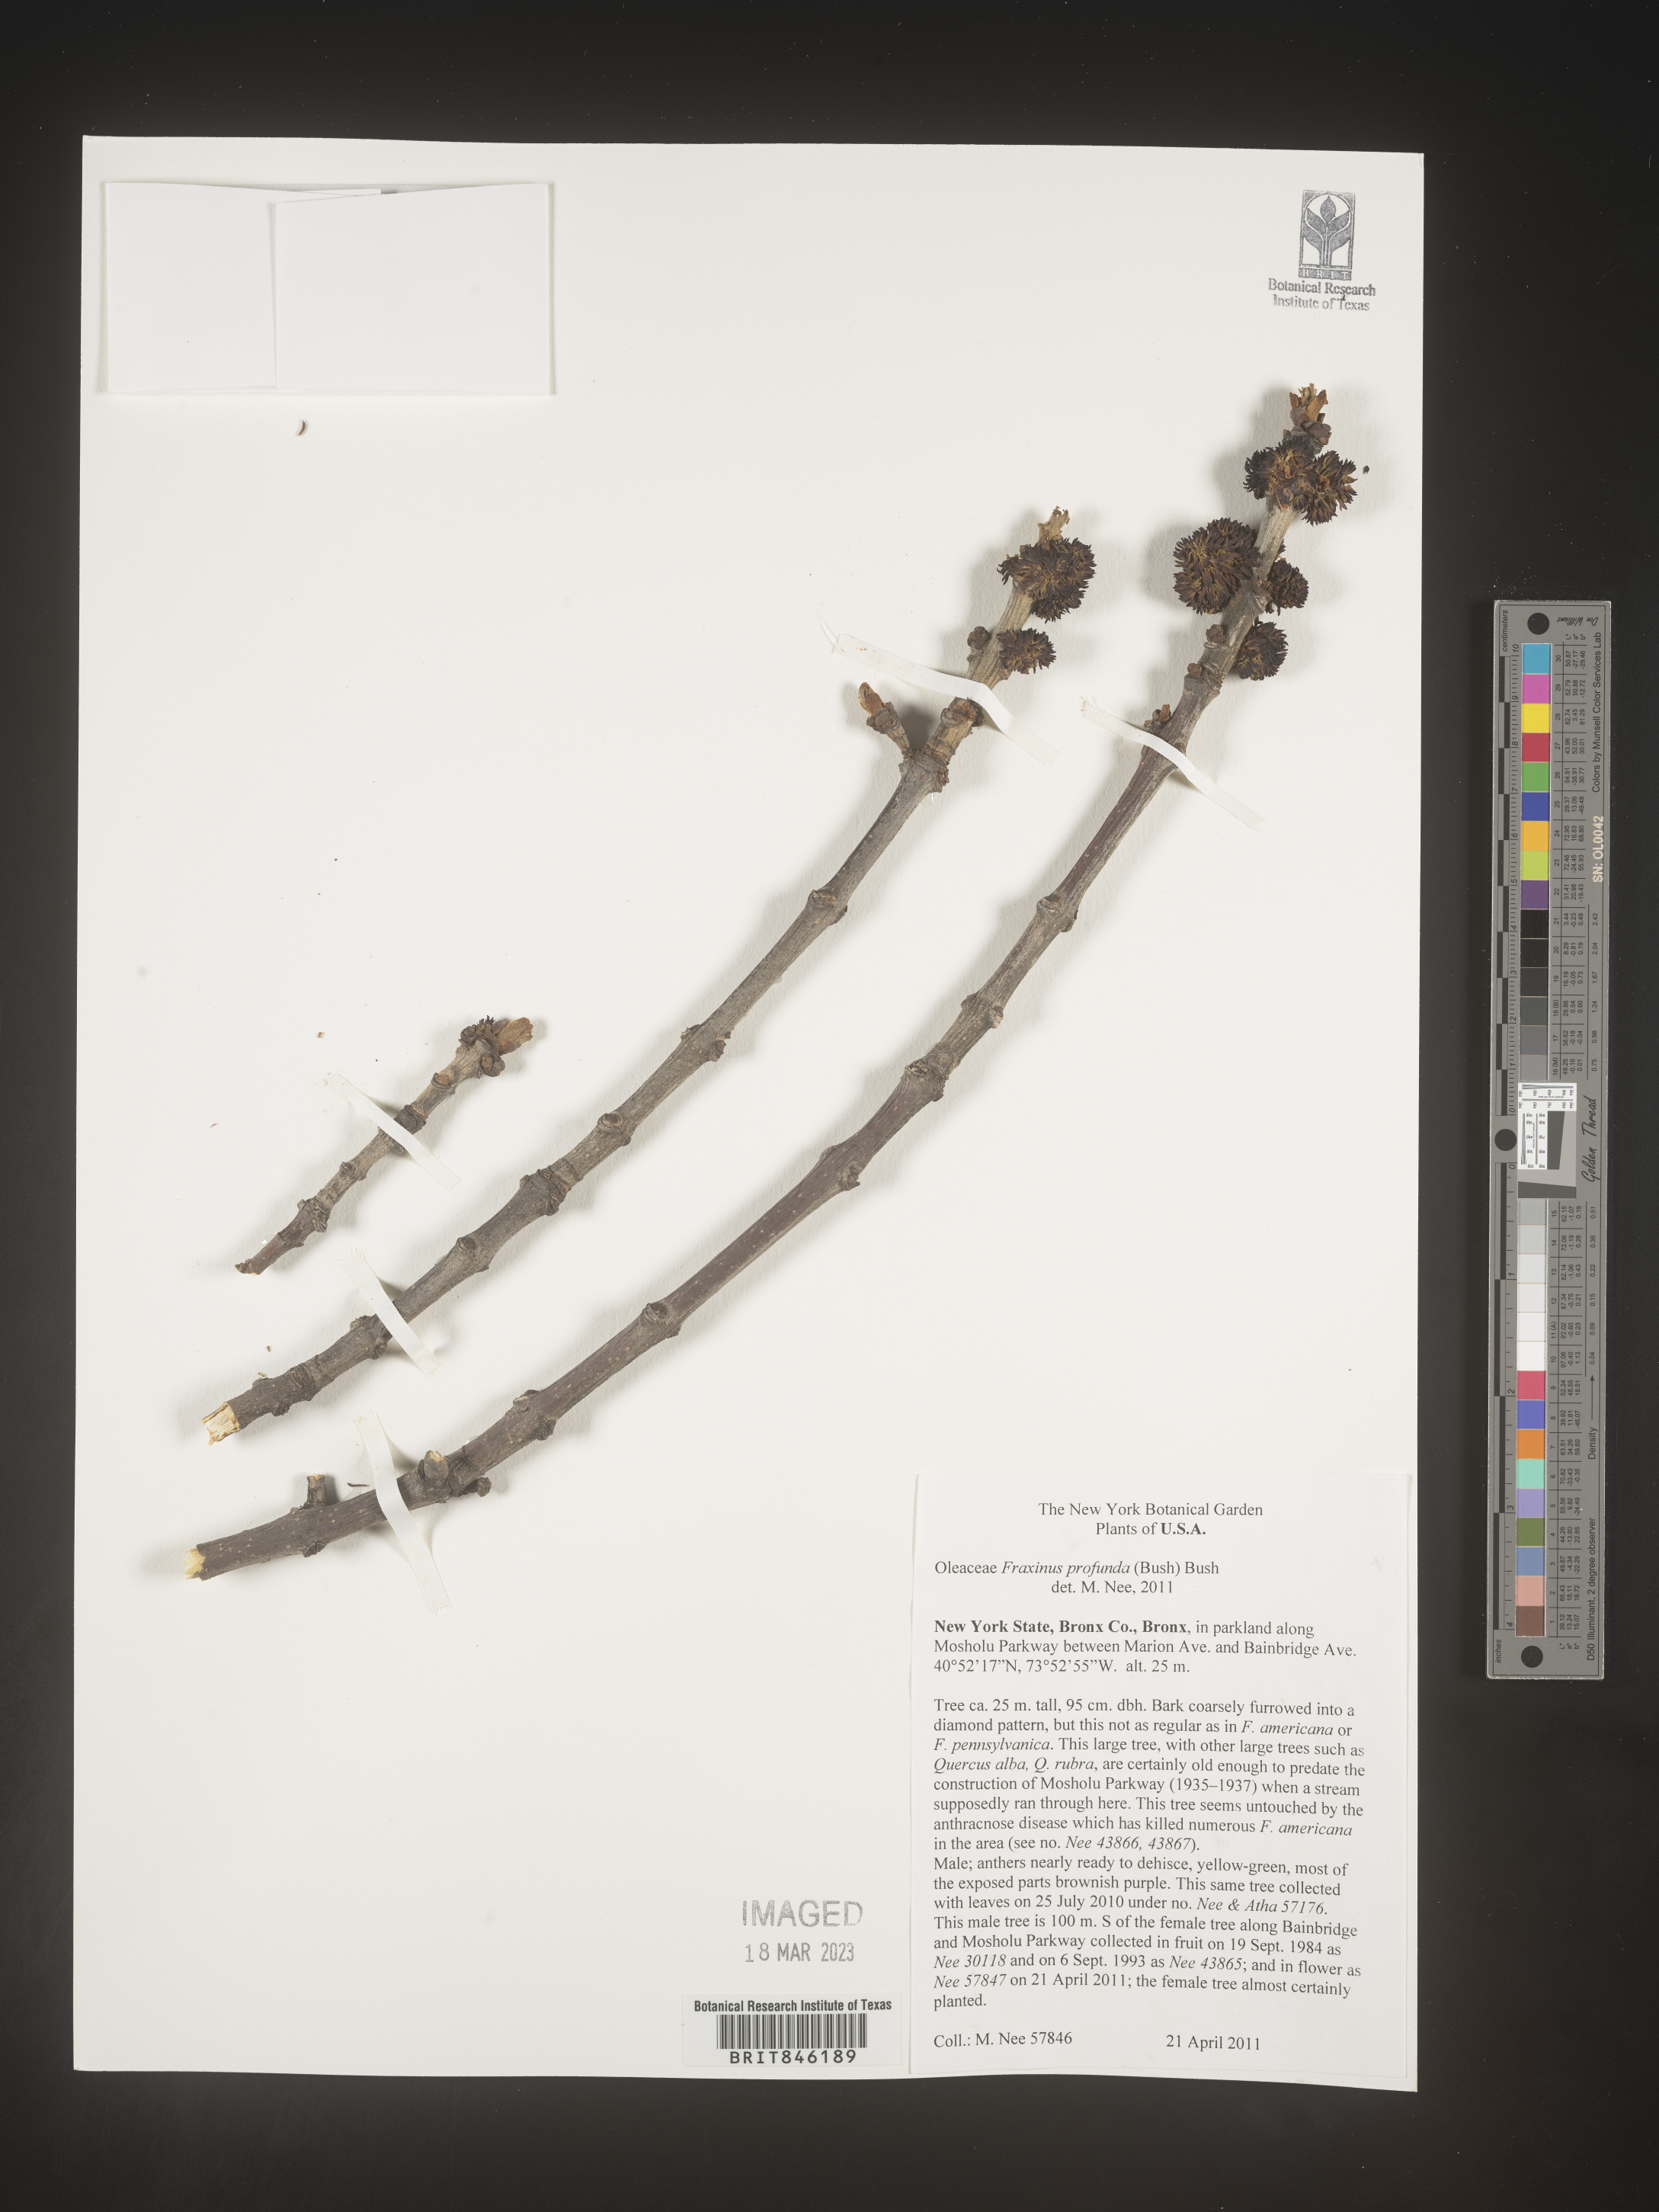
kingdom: Plantae
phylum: Tracheophyta
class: Magnoliopsida
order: Lamiales
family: Oleaceae
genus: Fraxinus
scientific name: Fraxinus profunda
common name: Pumpkin ash
